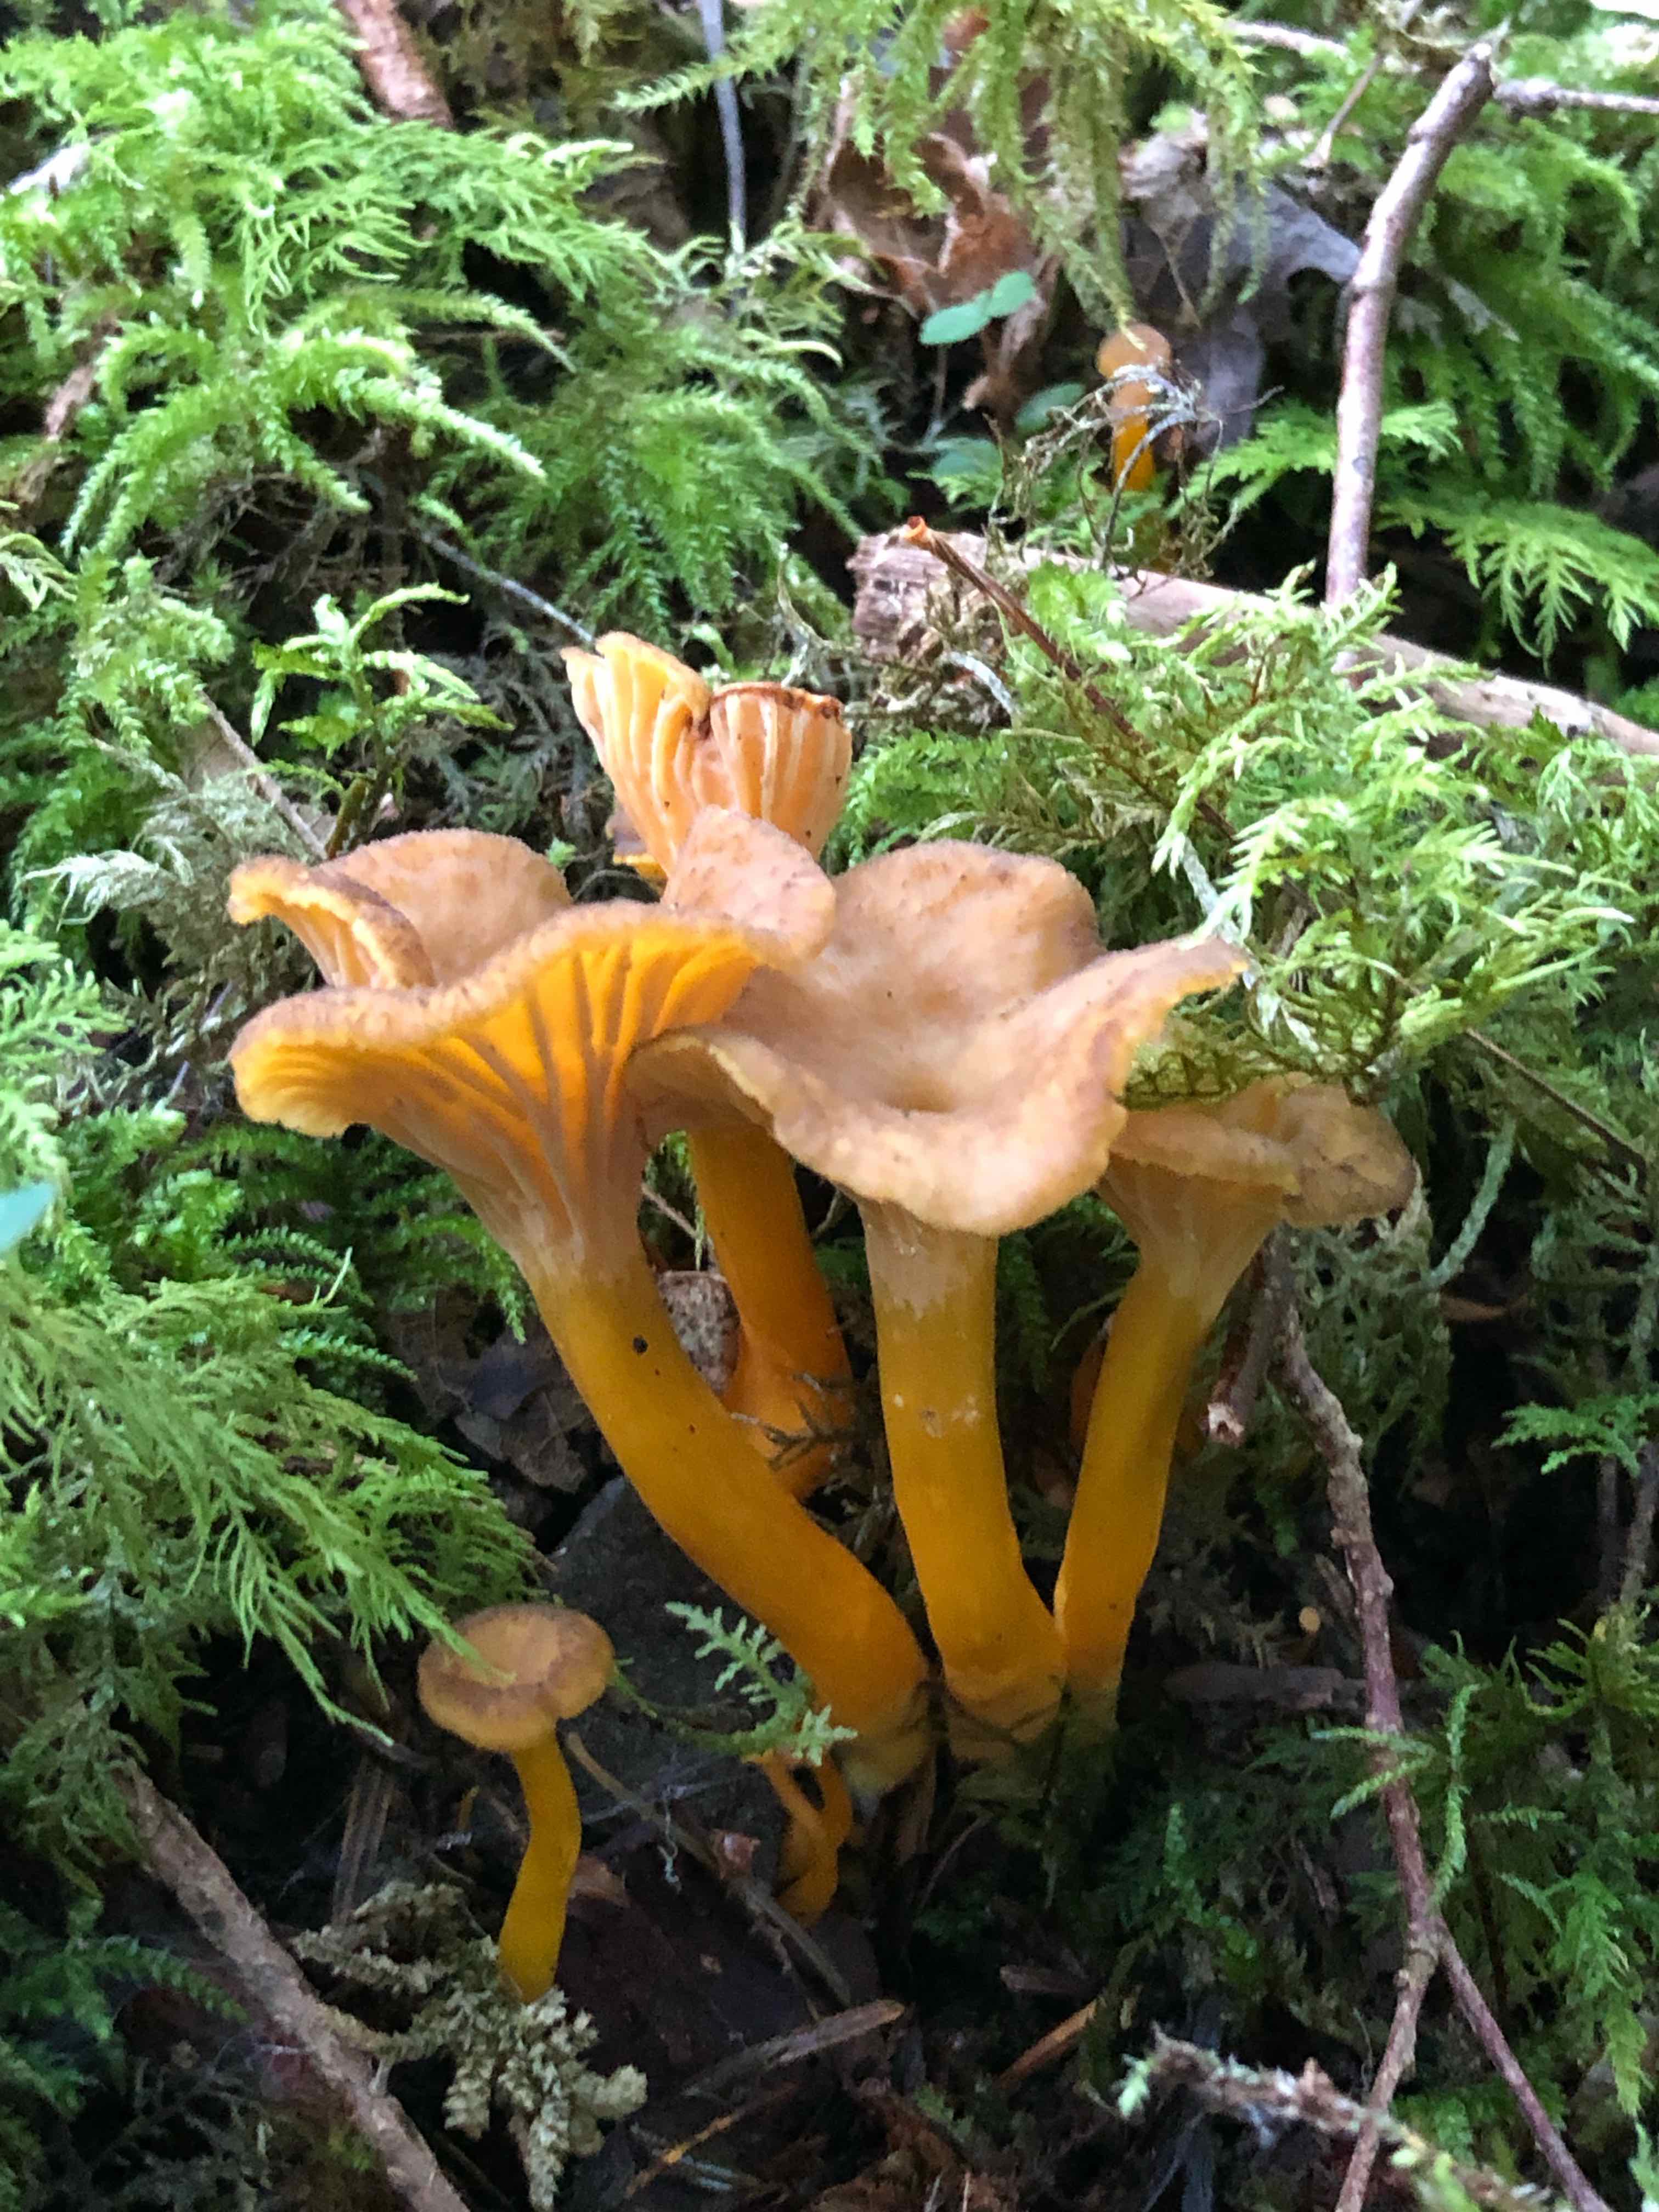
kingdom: Fungi
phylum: Basidiomycota
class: Agaricomycetes
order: Cantharellales
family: Hydnaceae
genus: Craterellus
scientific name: Craterellus tubaeformis
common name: tragt-kantarel
